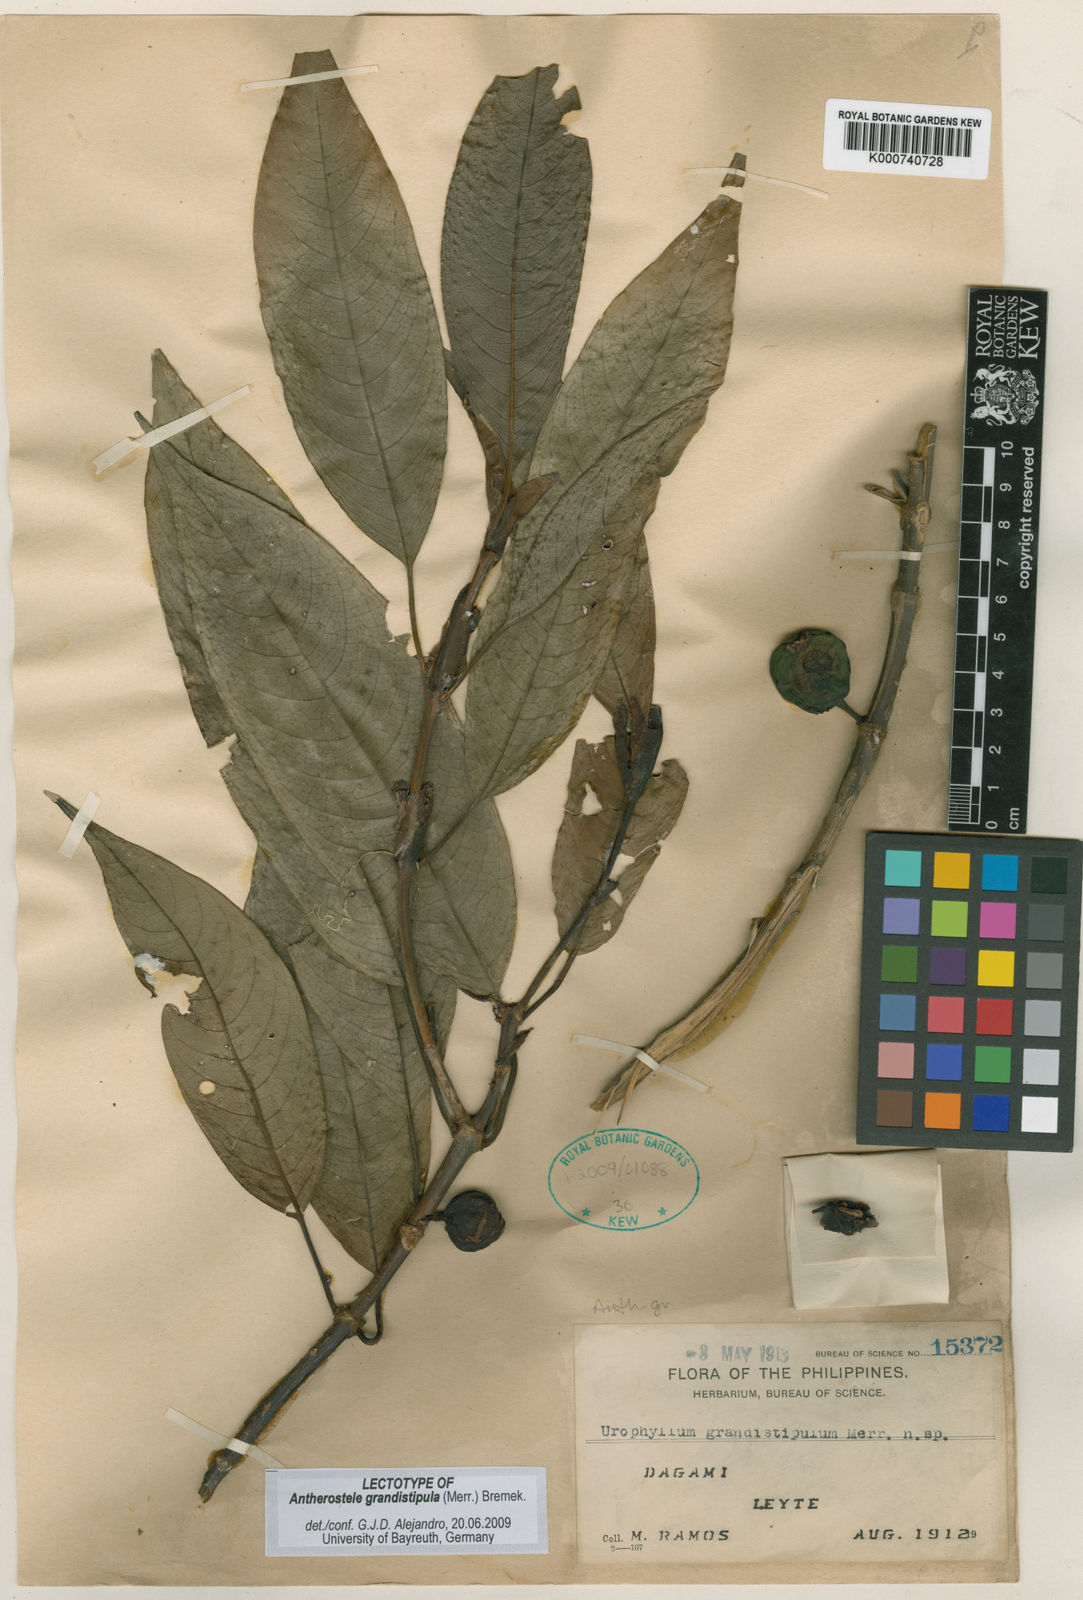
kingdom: Plantae
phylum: Tracheophyta
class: Magnoliopsida
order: Gentianales
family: Rubiaceae
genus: Antherostele
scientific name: Antherostele grandistipula
